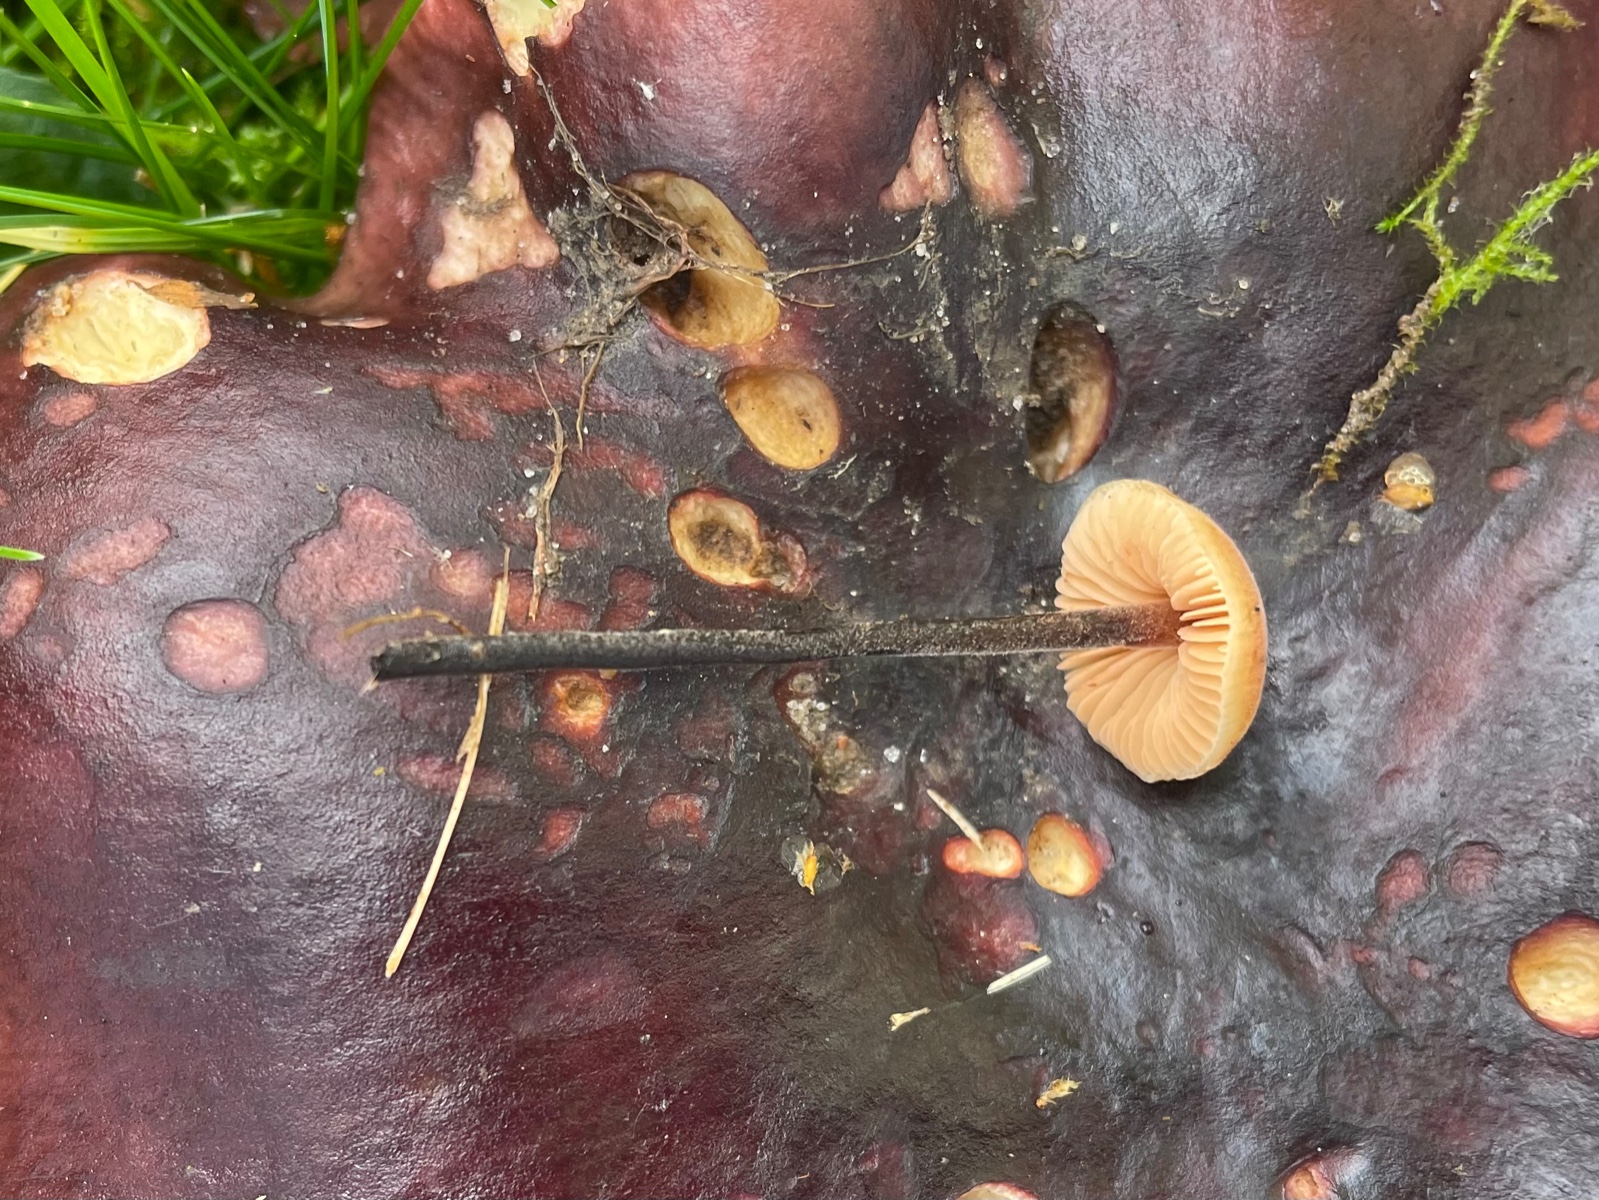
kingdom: Fungi
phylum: Basidiomycota
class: Agaricomycetes
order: Agaricales
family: Macrocystidiaceae
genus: Macrocystidia
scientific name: Macrocystidia cucumis
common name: Cucumber cap
